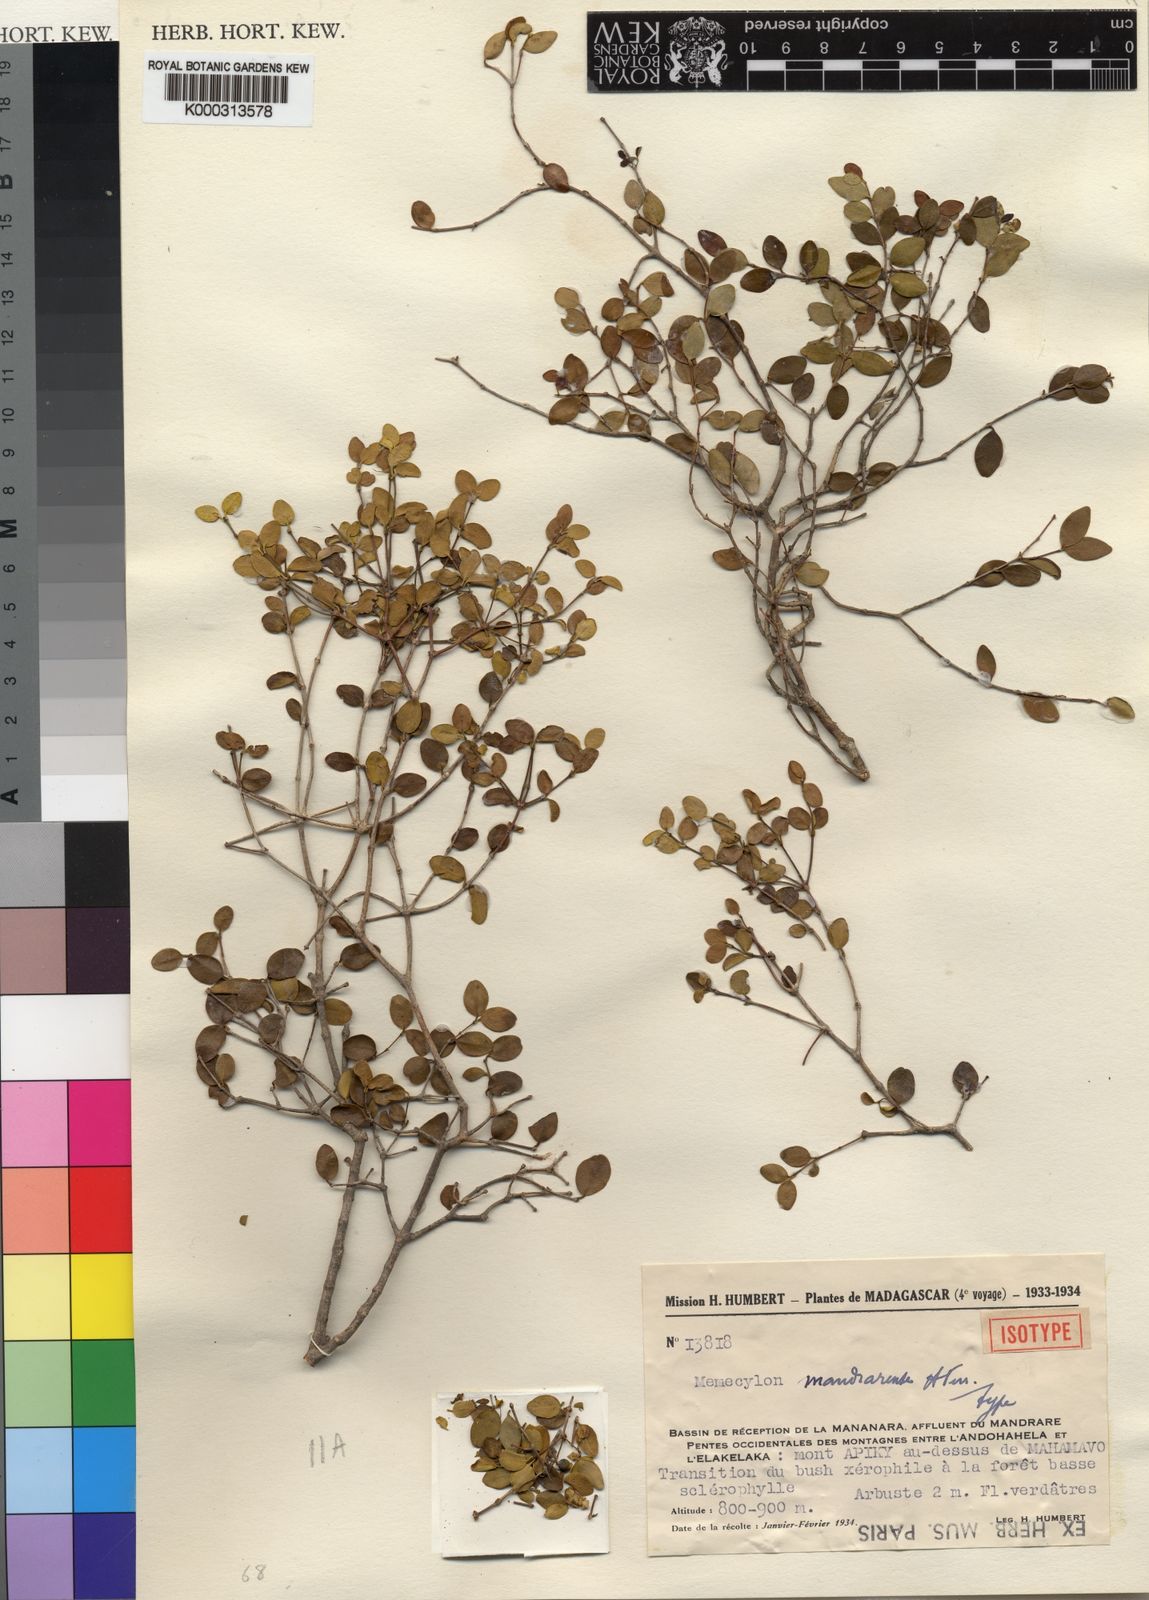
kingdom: Plantae
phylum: Tracheophyta
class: Magnoliopsida
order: Myrtales
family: Melastomataceae
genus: Memecylon
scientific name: Memecylon mandrarense
